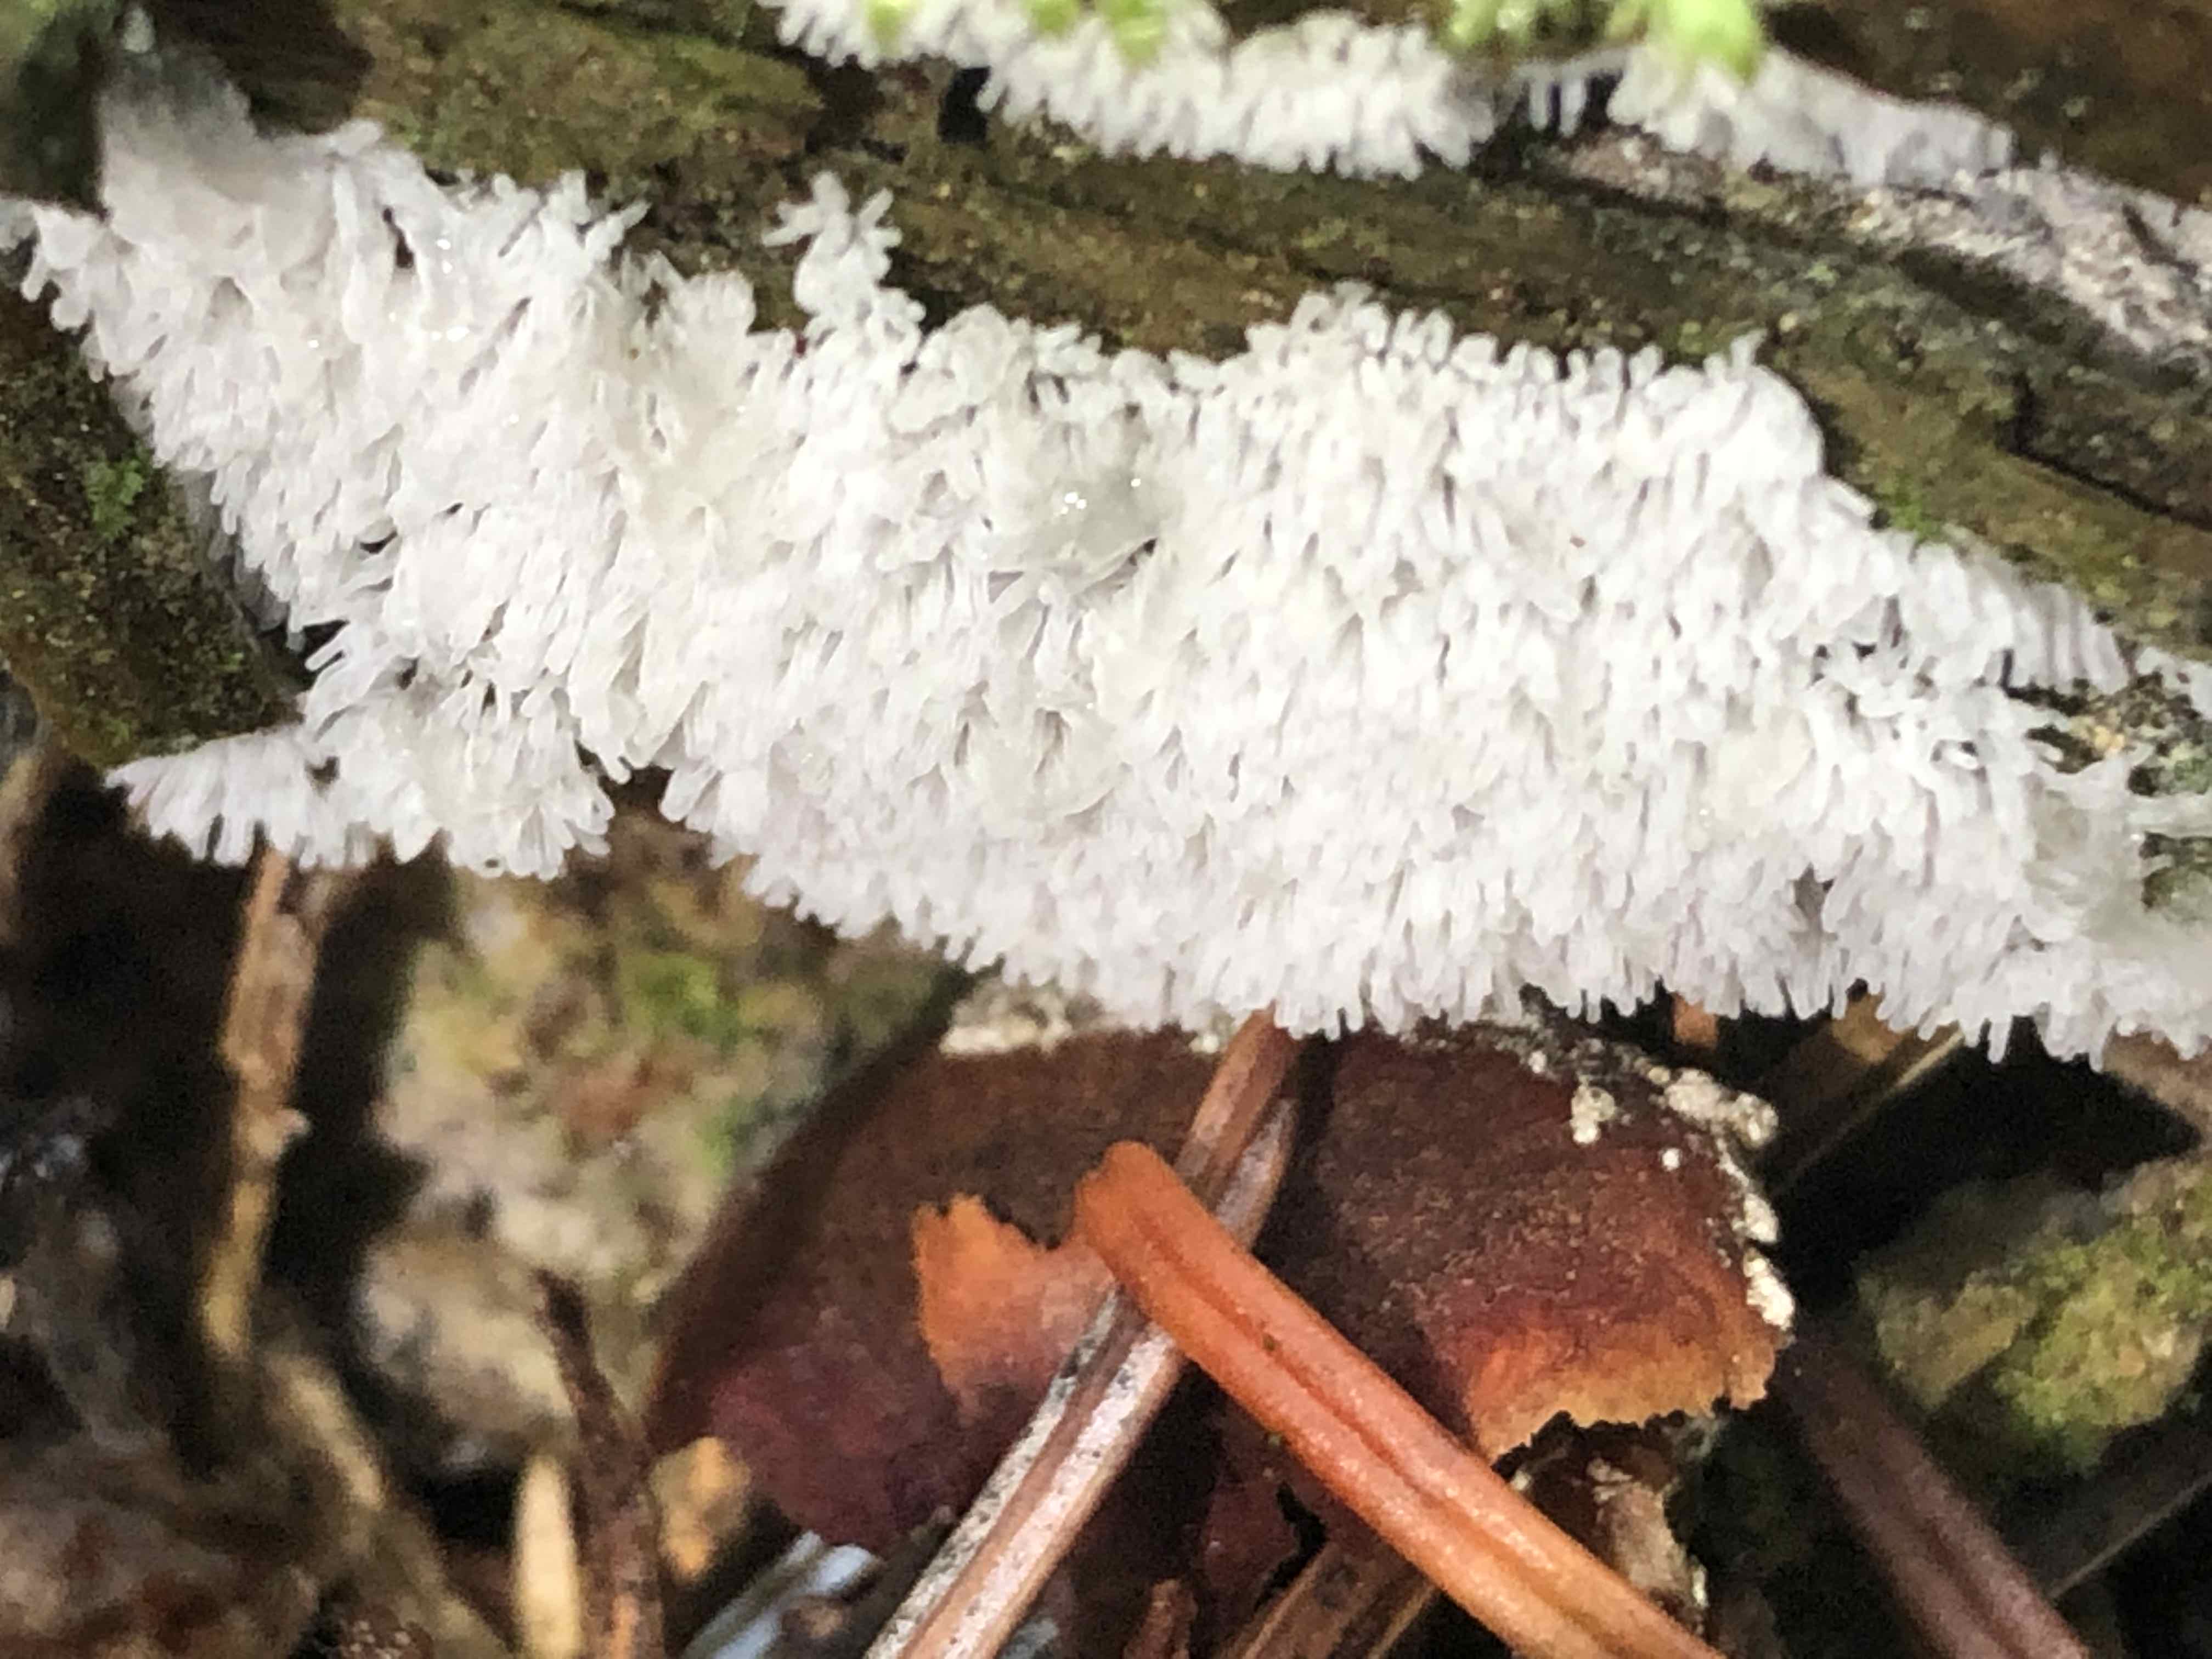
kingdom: Protozoa
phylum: Mycetozoa
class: Protosteliomycetes
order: Ceratiomyxales
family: Ceratiomyxaceae
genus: Ceratiomyxa
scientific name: Ceratiomyxa fruticulosa
